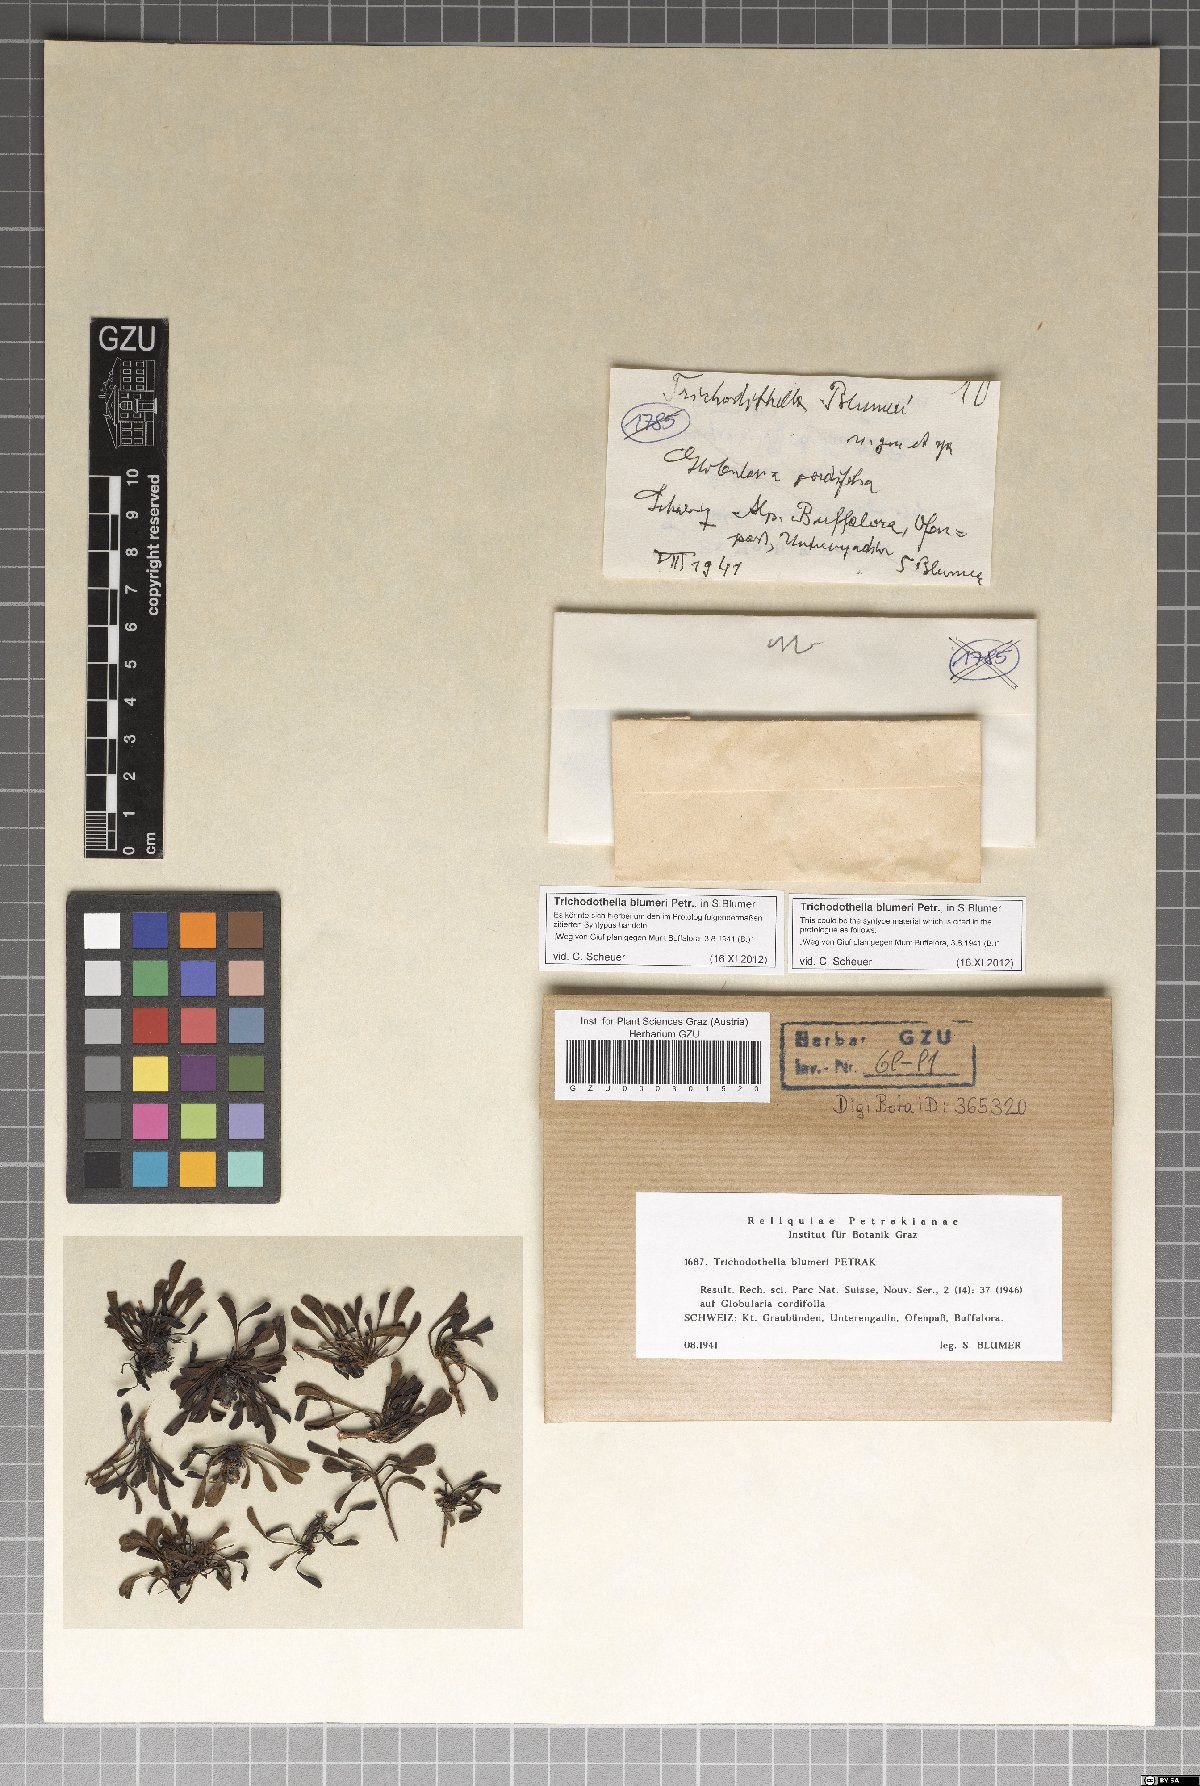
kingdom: Fungi
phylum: Ascomycota
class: Dothideomycetes
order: Venturiales
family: Venturiaceae
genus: Trichodothella
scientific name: Trichodothella blumeri
